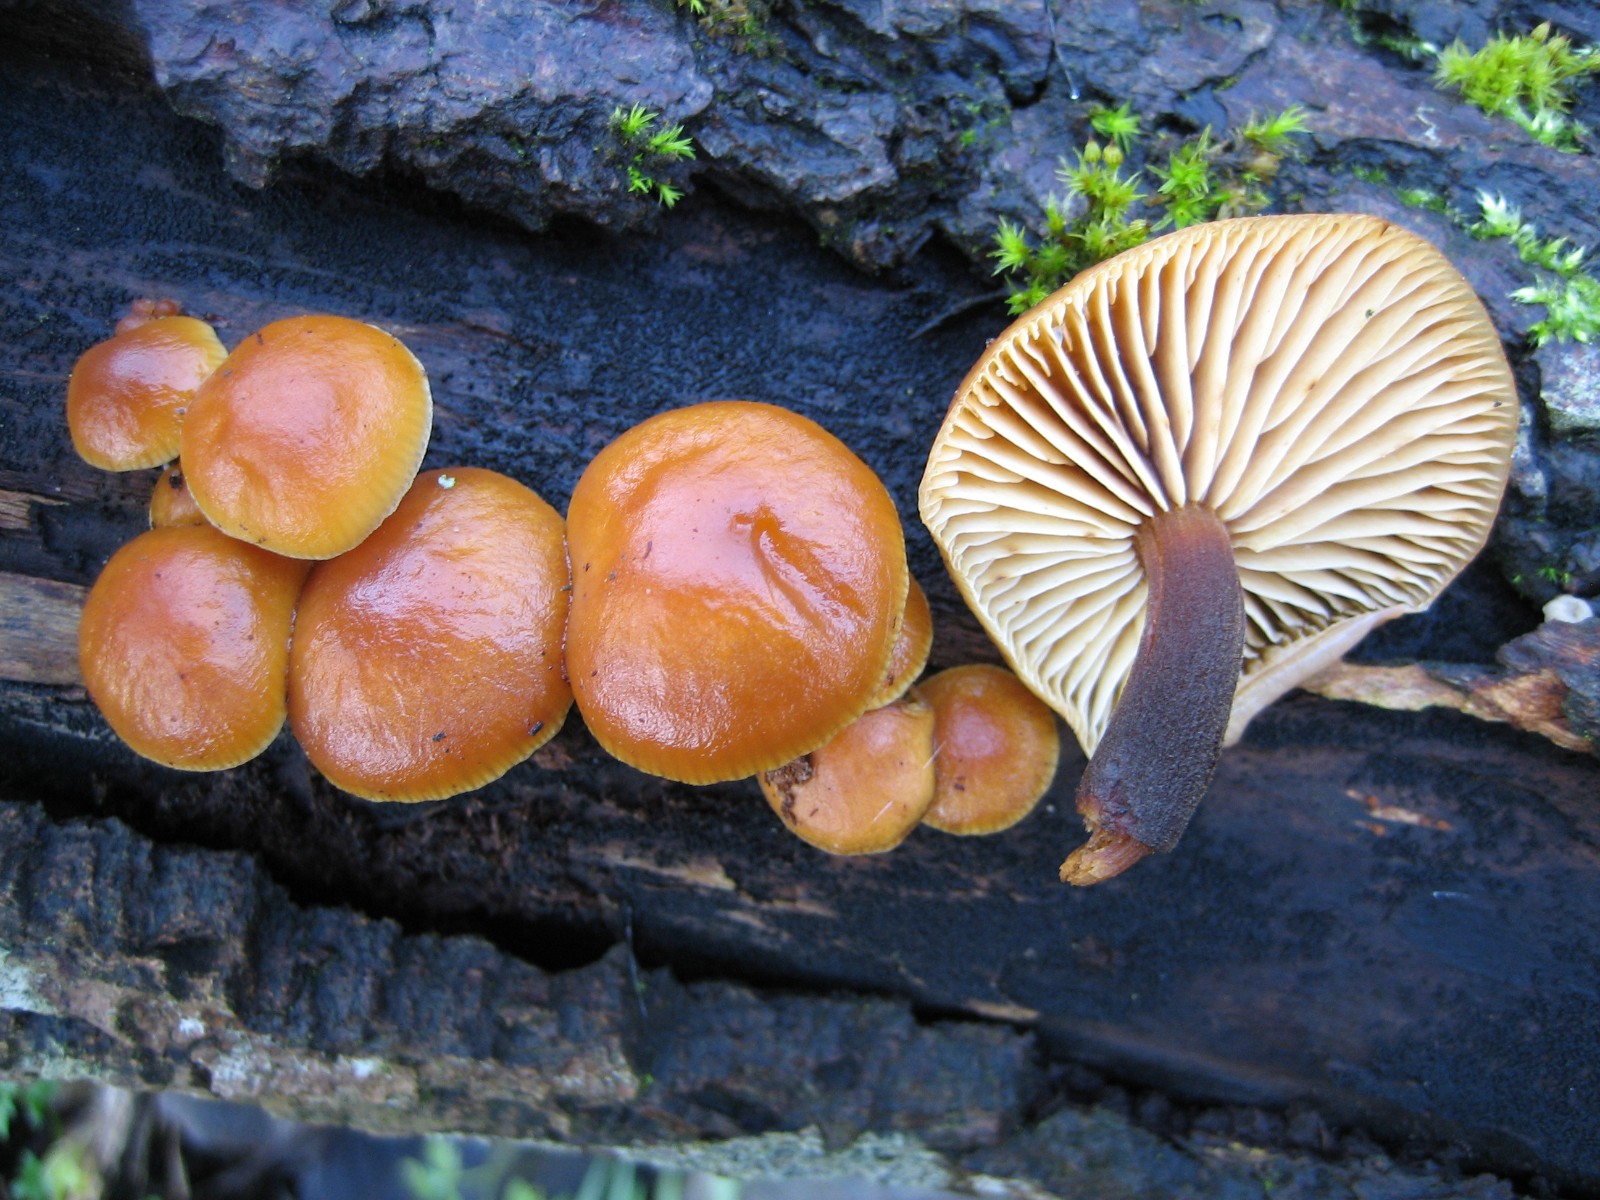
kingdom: Fungi
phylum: Basidiomycota
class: Agaricomycetes
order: Agaricales
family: Physalacriaceae
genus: Flammulina
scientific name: Flammulina velutipes
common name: gul fløjlsfod
